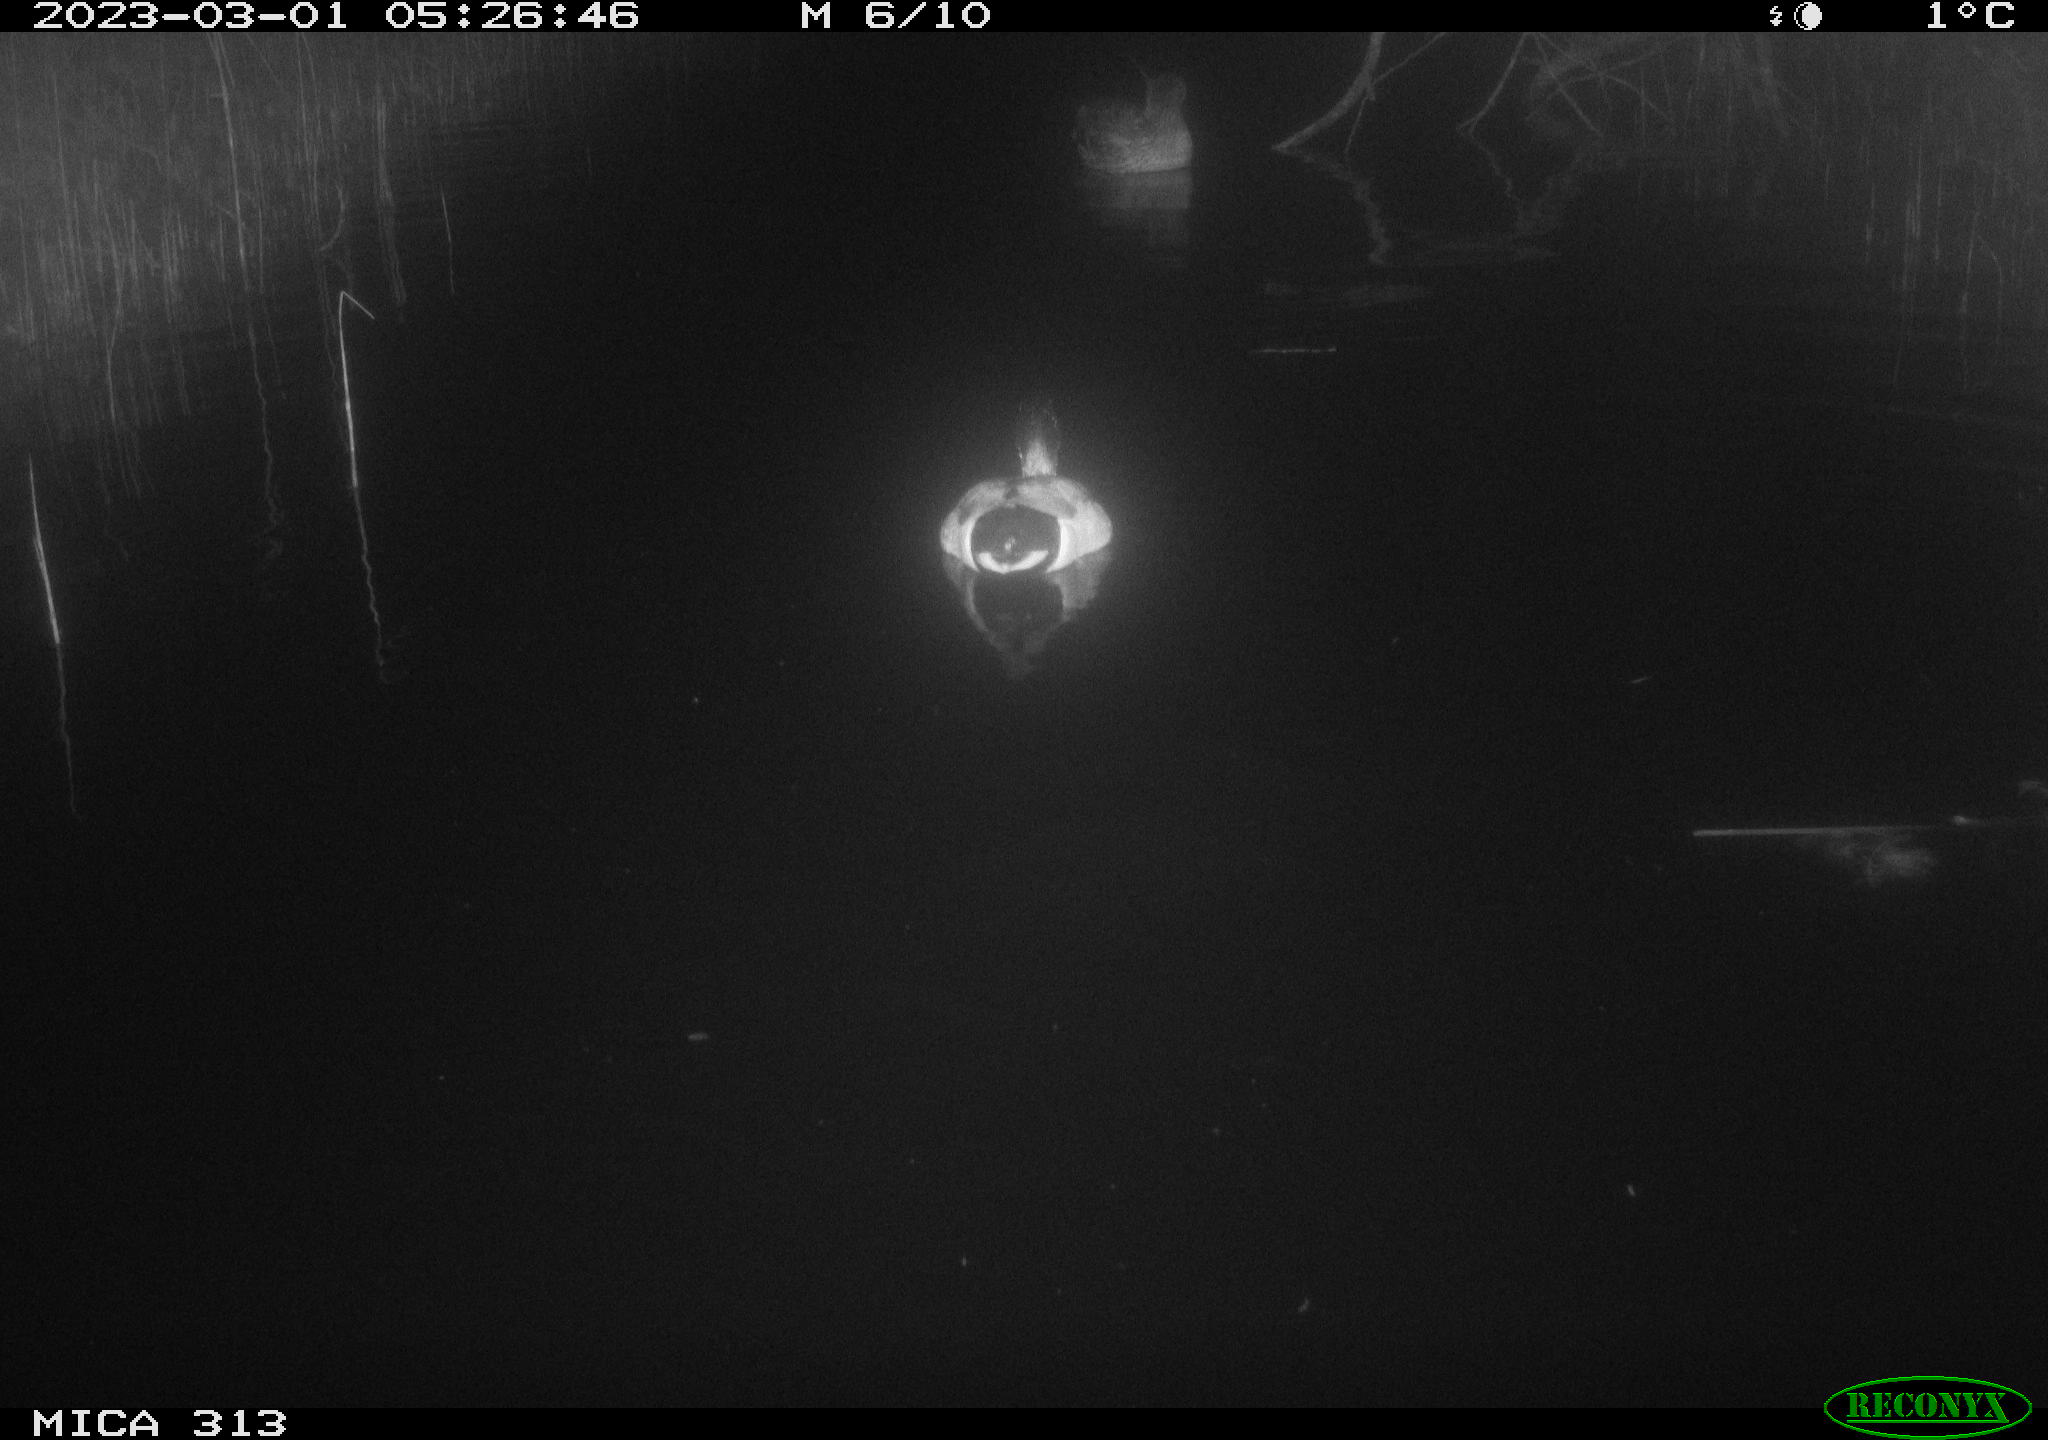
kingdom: Animalia
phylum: Chordata
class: Aves
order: Anseriformes
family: Anatidae
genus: Anas
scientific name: Anas
